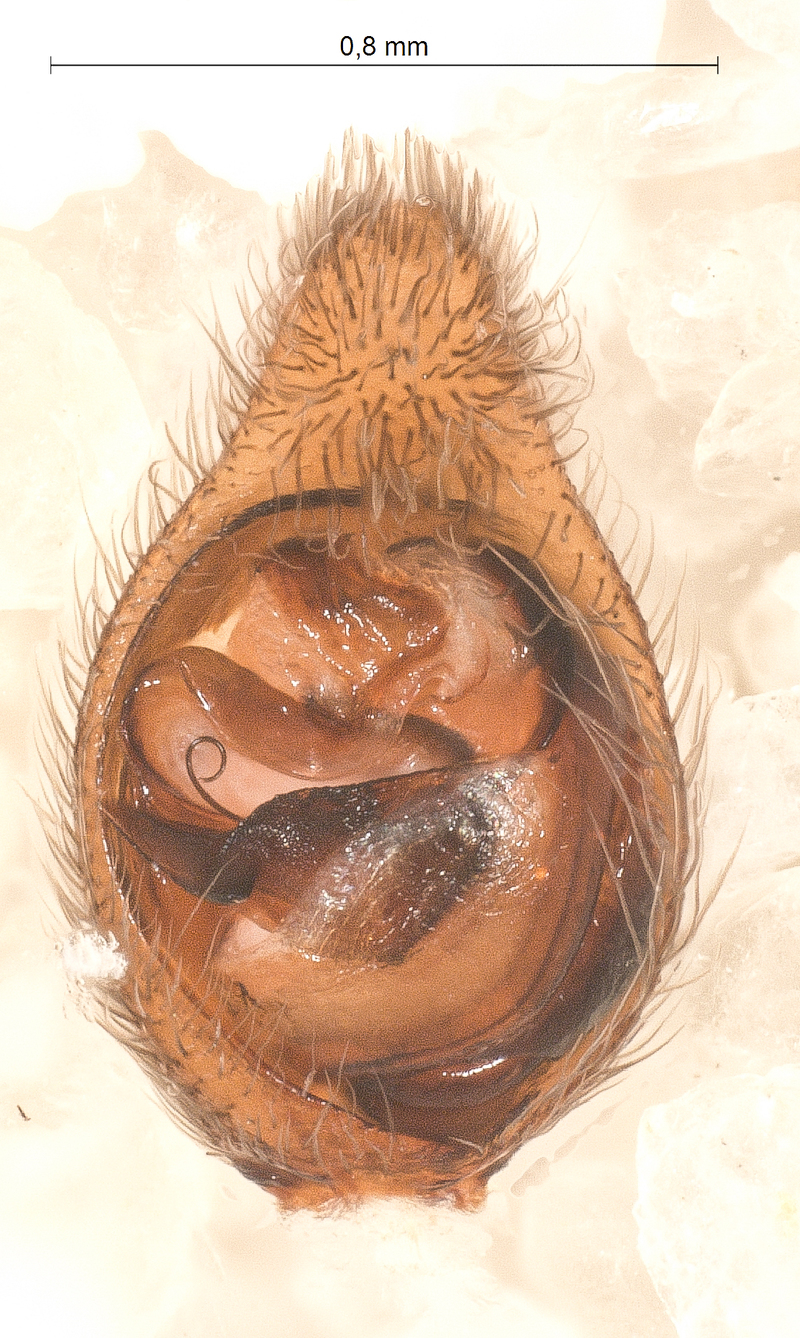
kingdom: Animalia
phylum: Arthropoda
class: Arachnida
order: Araneae
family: Lycosidae
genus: Trochosa
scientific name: Trochosa terricola
